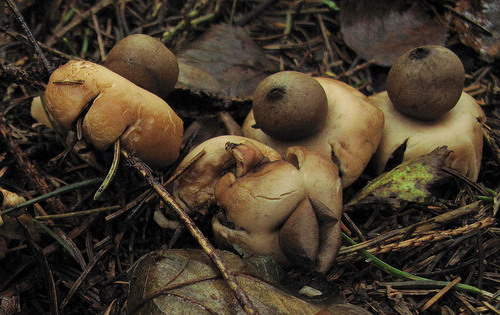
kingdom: Fungi
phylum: Basidiomycota
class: Agaricomycetes
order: Geastrales
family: Geastraceae
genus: Geastrum
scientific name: Geastrum fimbriatum
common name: frynset stjernebold
